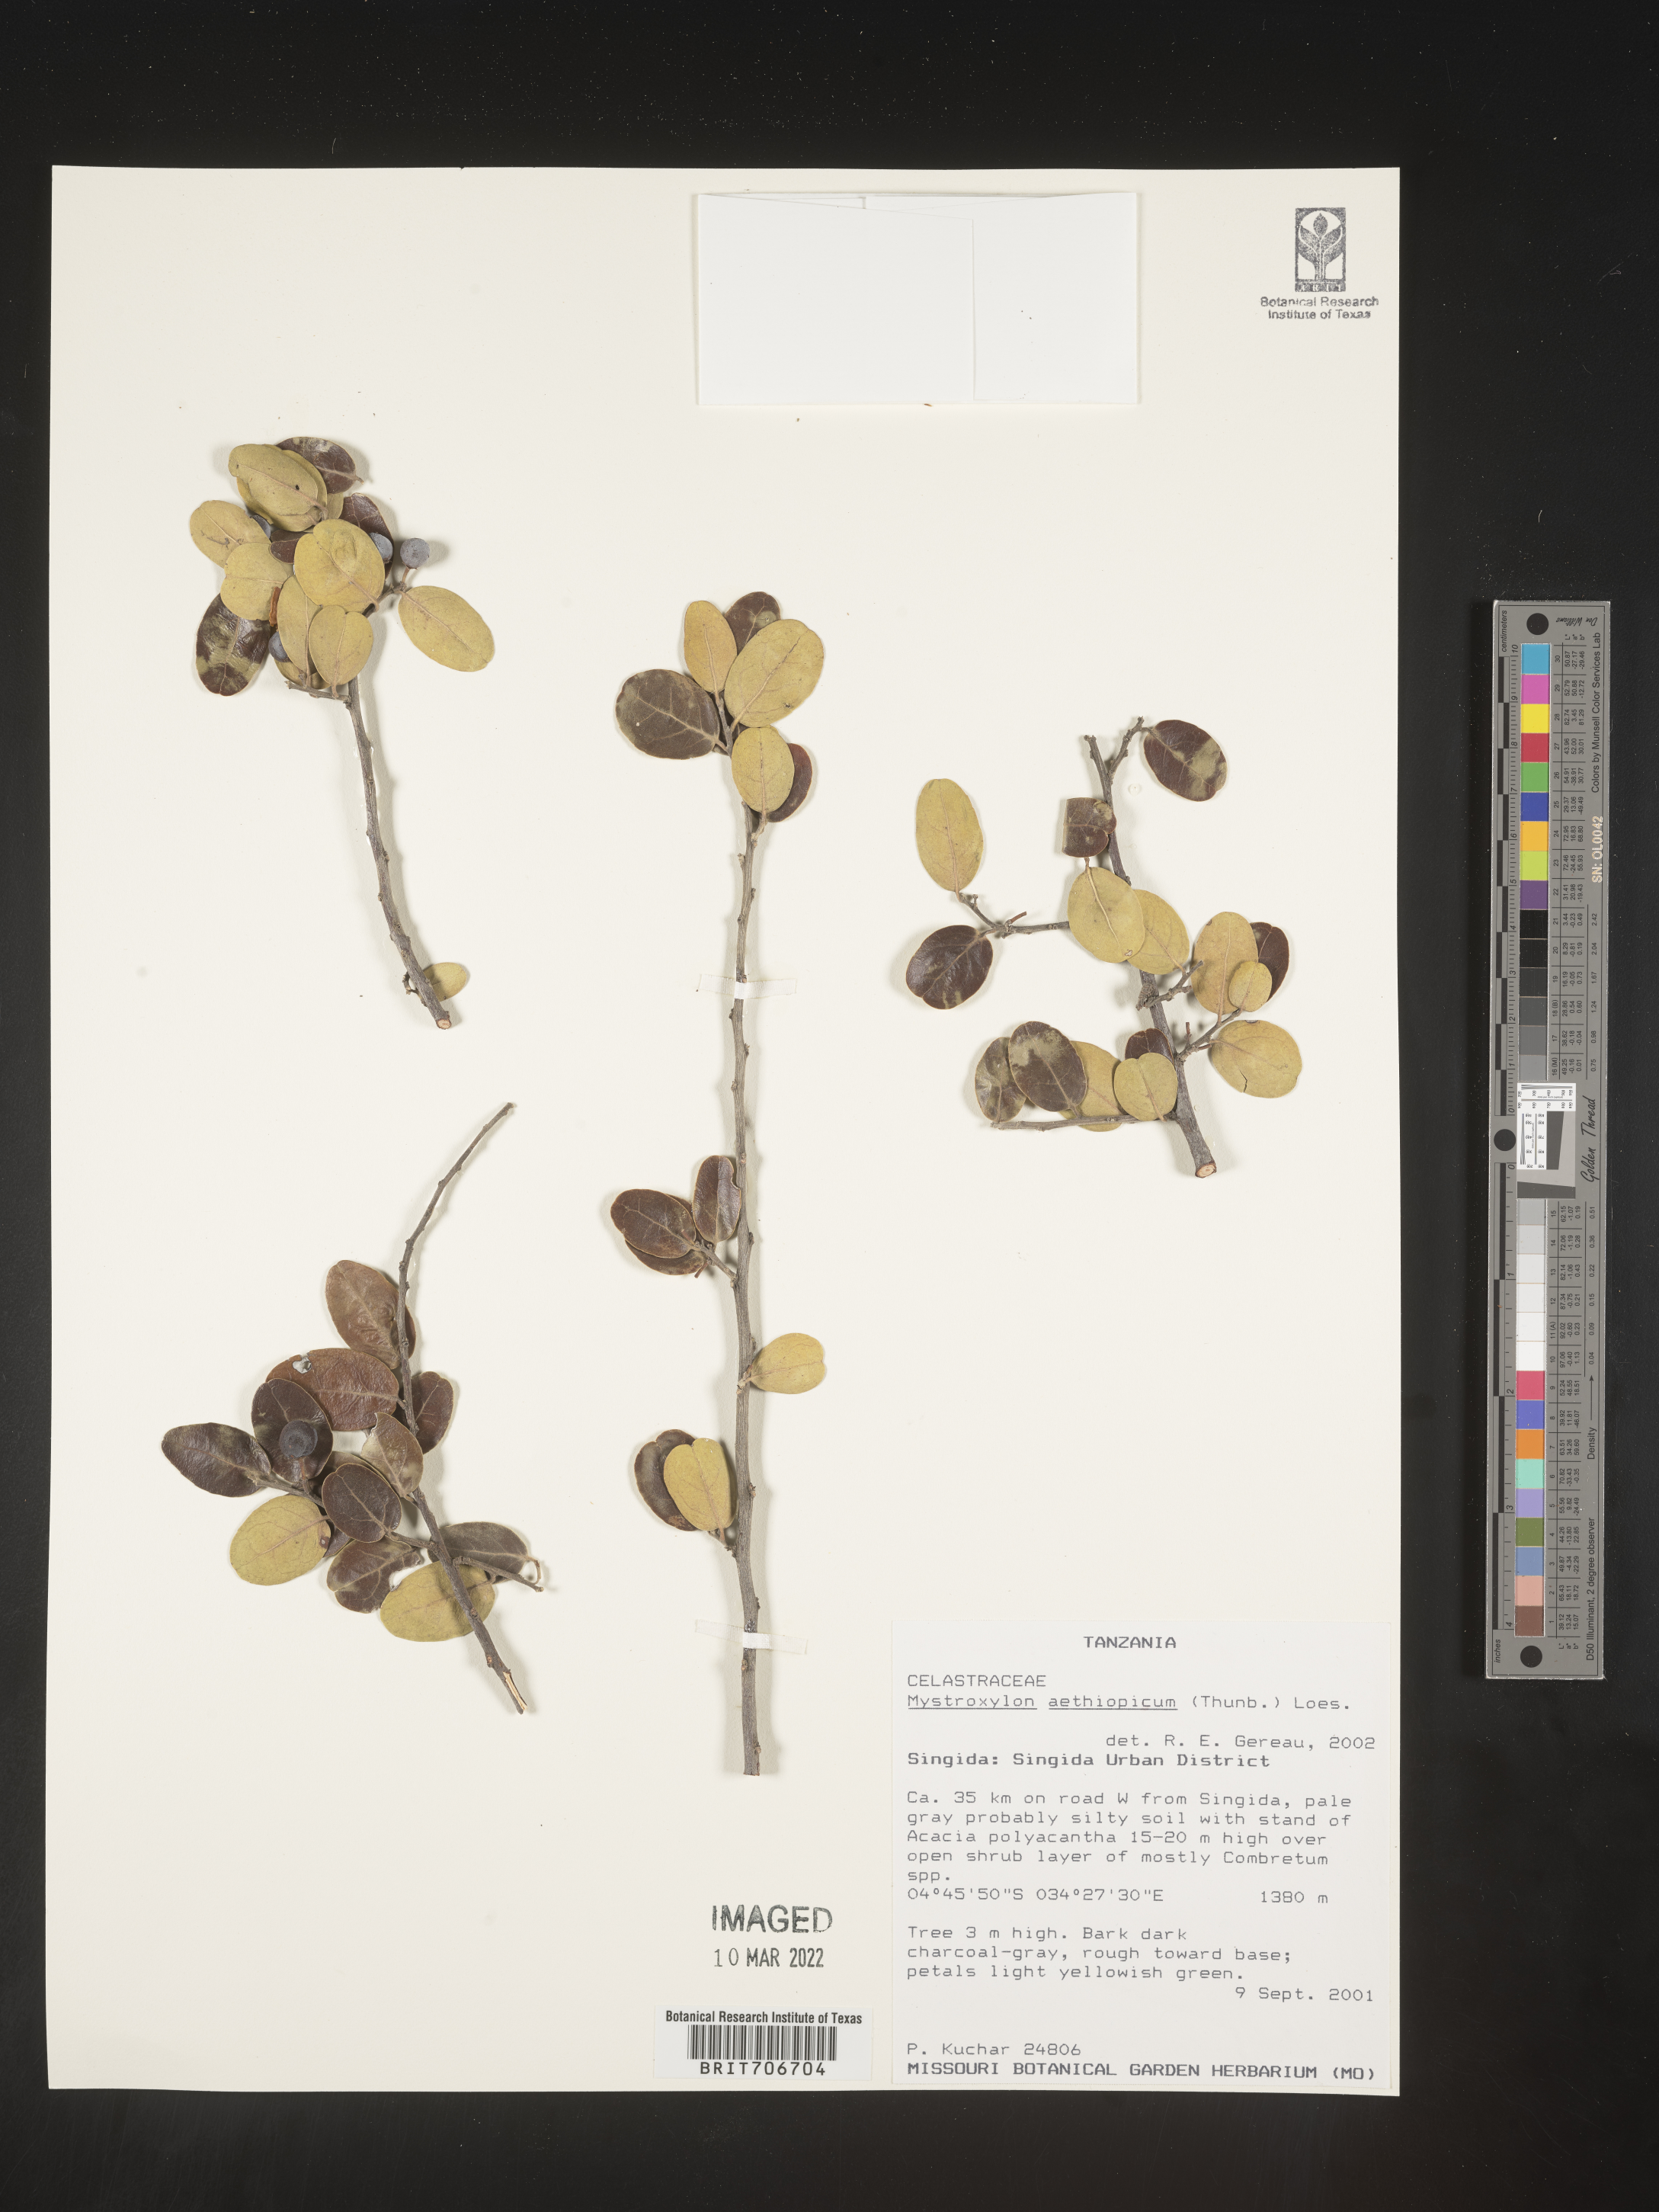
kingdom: Plantae
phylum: Tracheophyta
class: Magnoliopsida
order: Celastrales
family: Celastraceae
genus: Mystroxylon
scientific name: Mystroxylon
